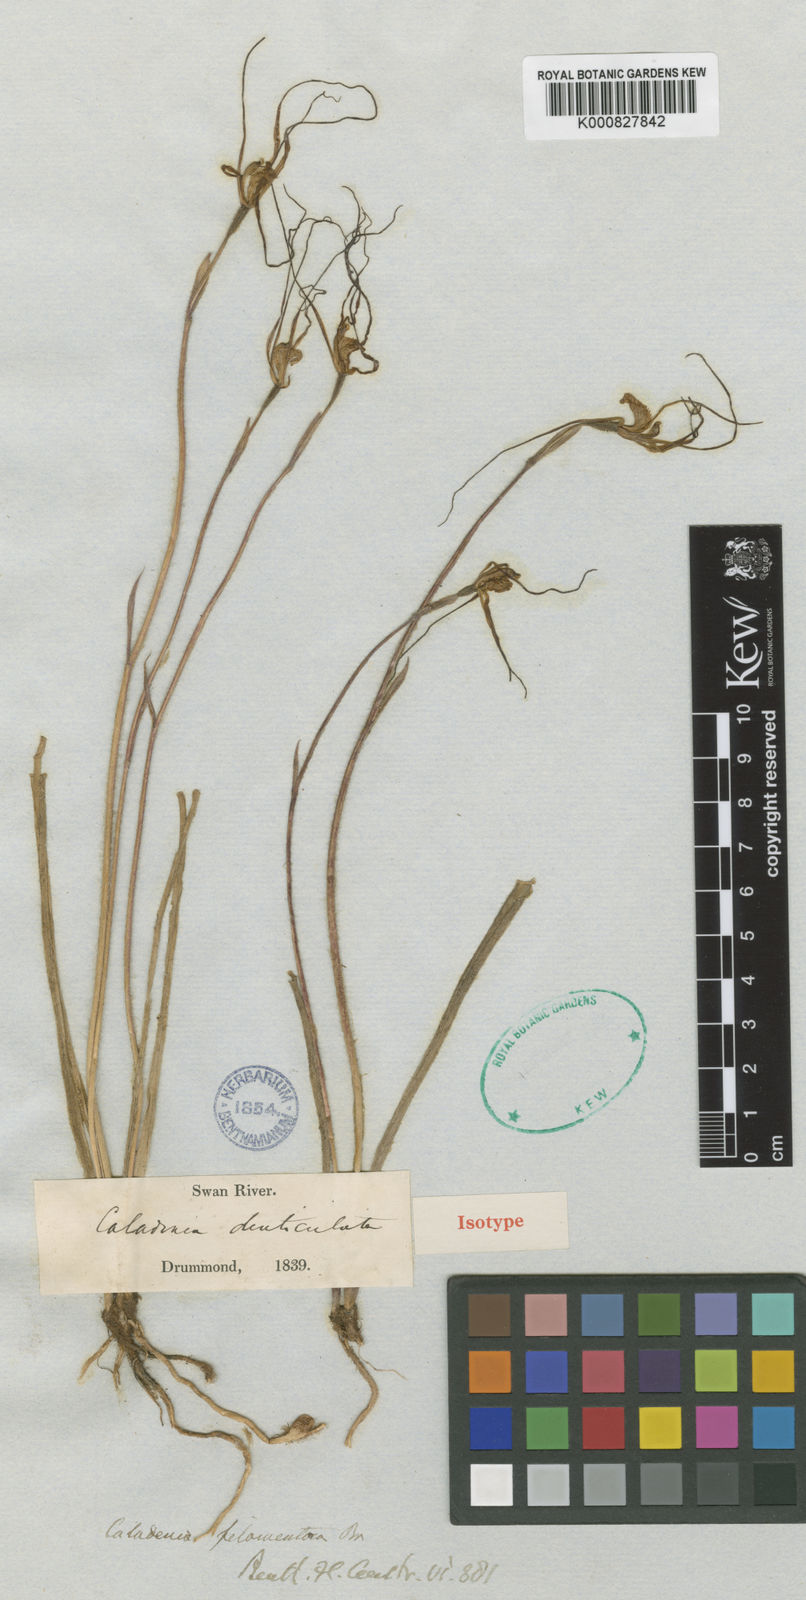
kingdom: Plantae
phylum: Tracheophyta
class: Liliopsida
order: Asparagales
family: Orchidaceae
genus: Caladenia
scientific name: Caladenia denticulata
